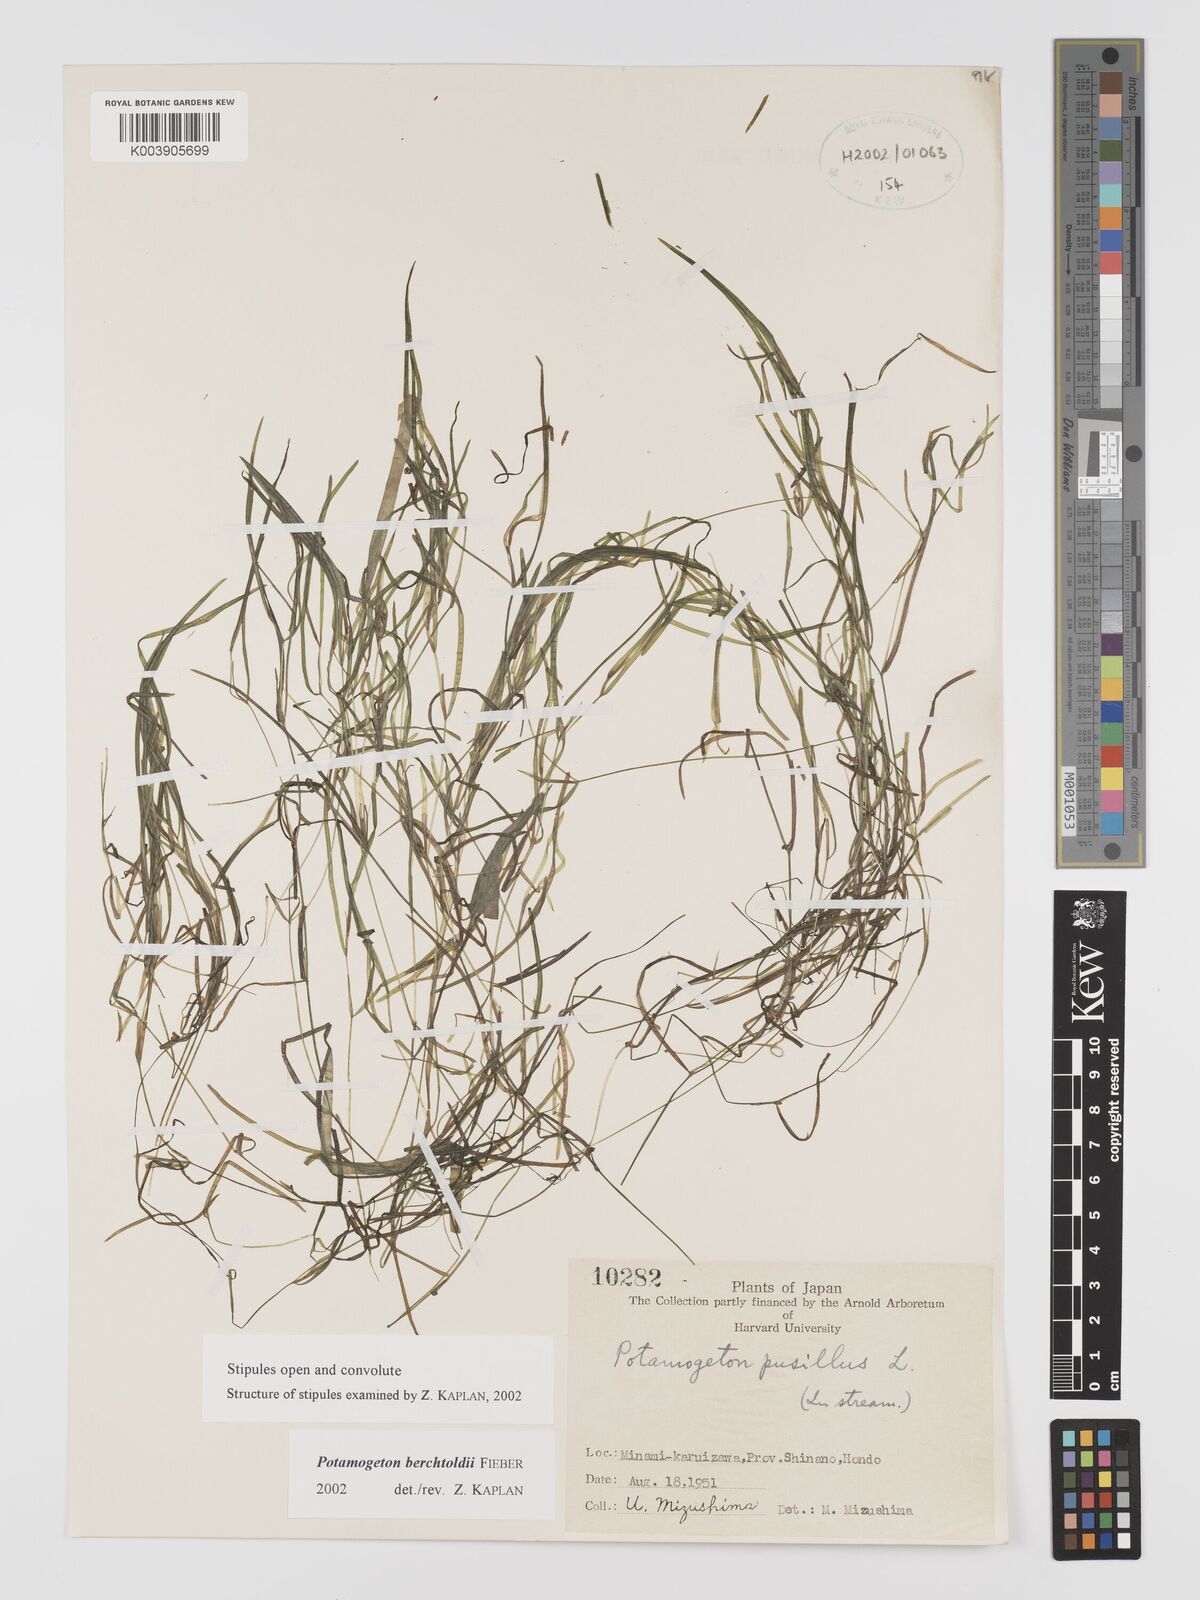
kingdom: Plantae
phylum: Tracheophyta
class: Liliopsida
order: Alismatales
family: Potamogetonaceae
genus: Potamogeton
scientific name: Potamogeton berchtoldii
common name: Small pondweed
